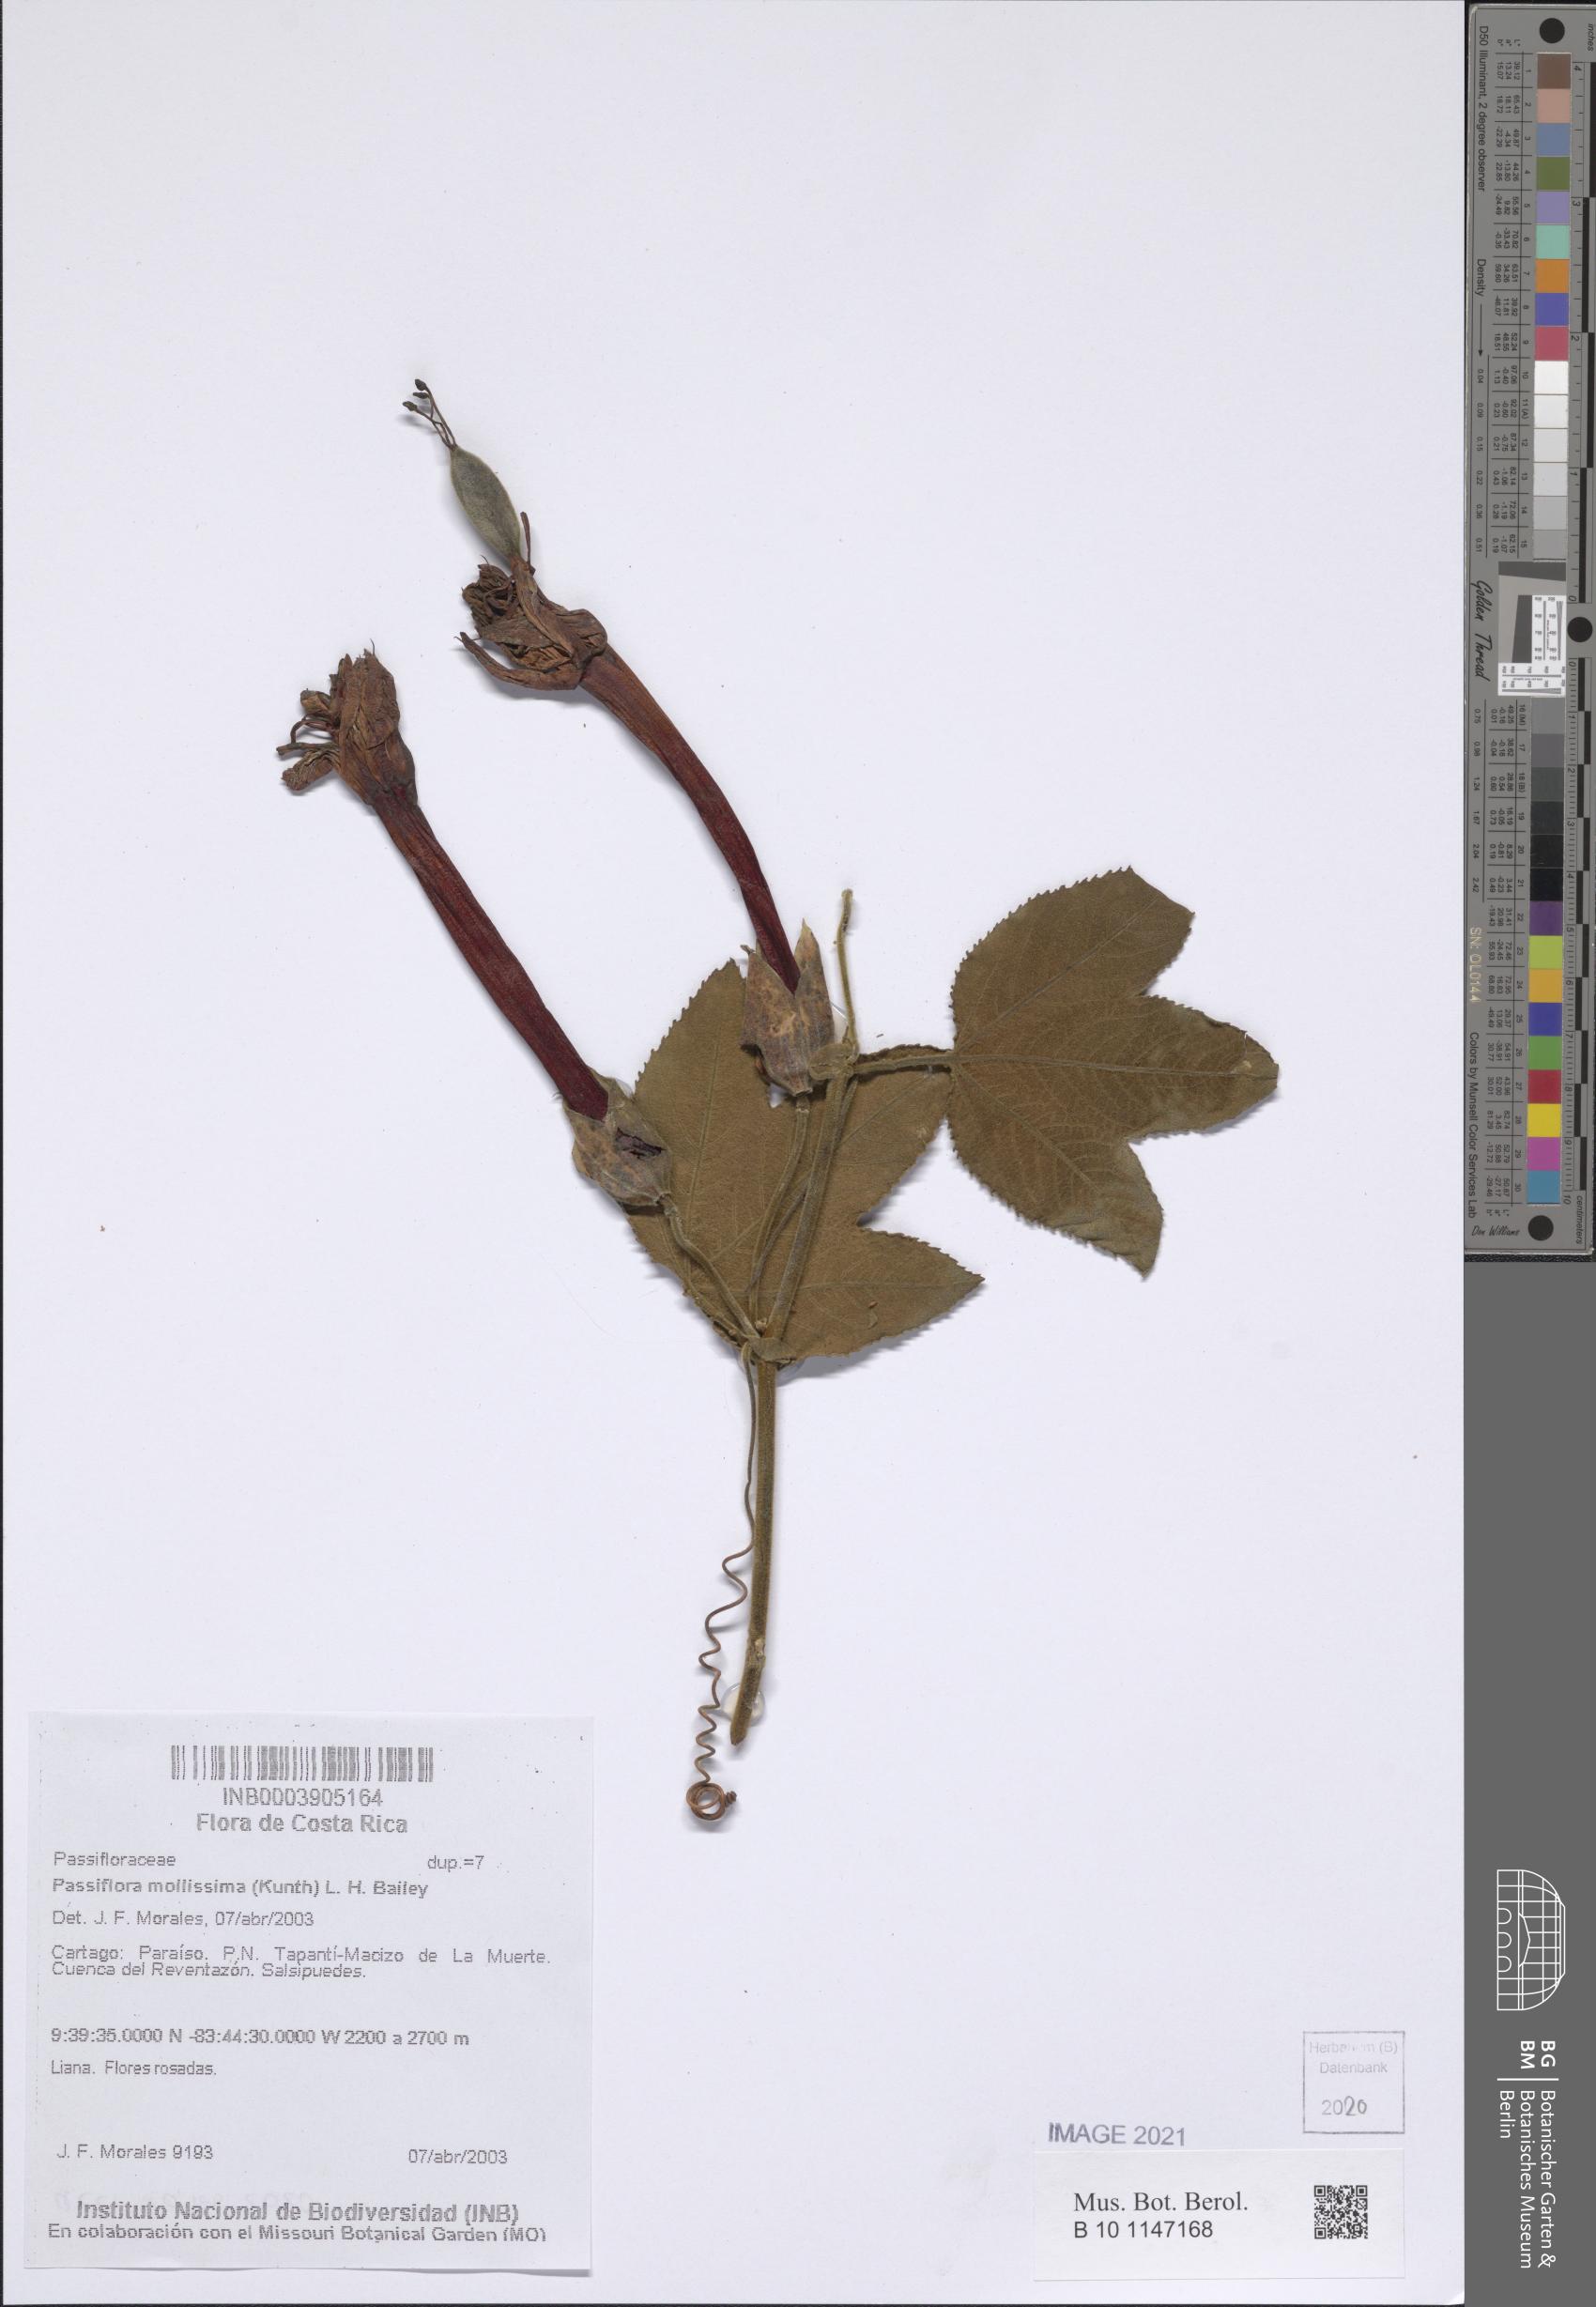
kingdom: Plantae
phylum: Tracheophyta
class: Magnoliopsida
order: Malpighiales
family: Passifloraceae
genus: Passiflora
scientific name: Passiflora tripartita
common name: Banana poka
